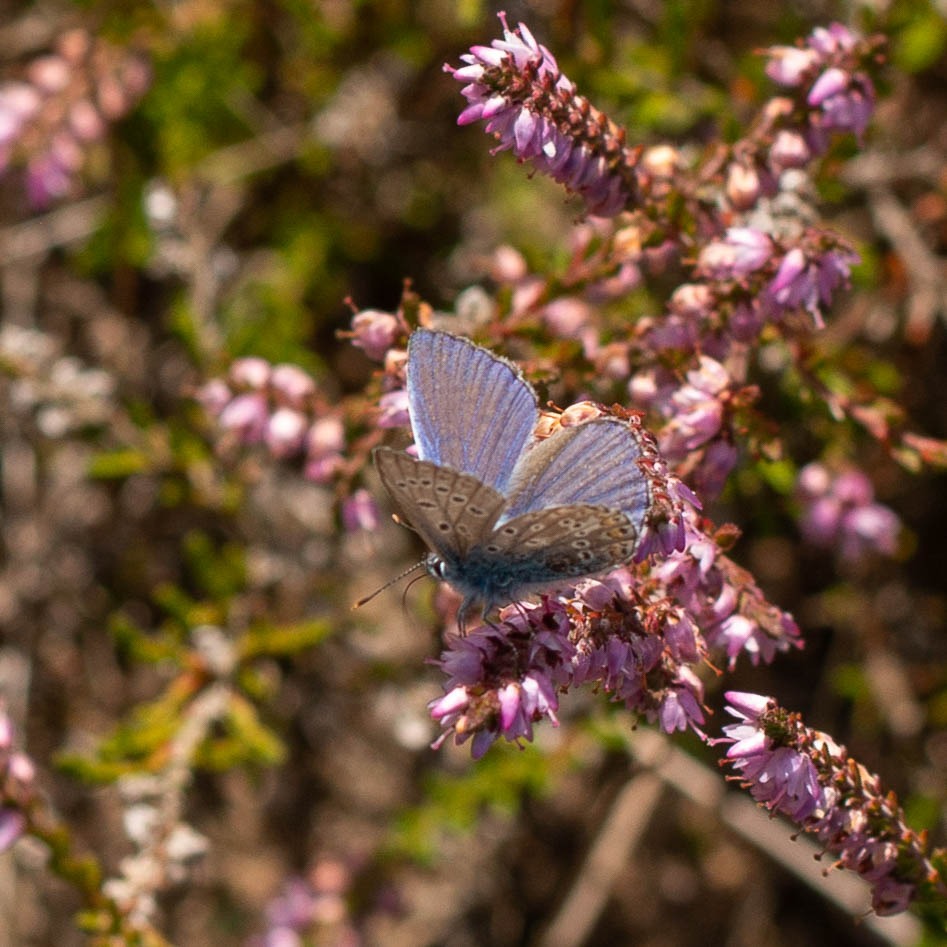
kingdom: Animalia
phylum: Arthropoda
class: Insecta
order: Lepidoptera
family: Lycaenidae
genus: Polyommatus
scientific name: Polyommatus icarus
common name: Almindelig blåfugl
